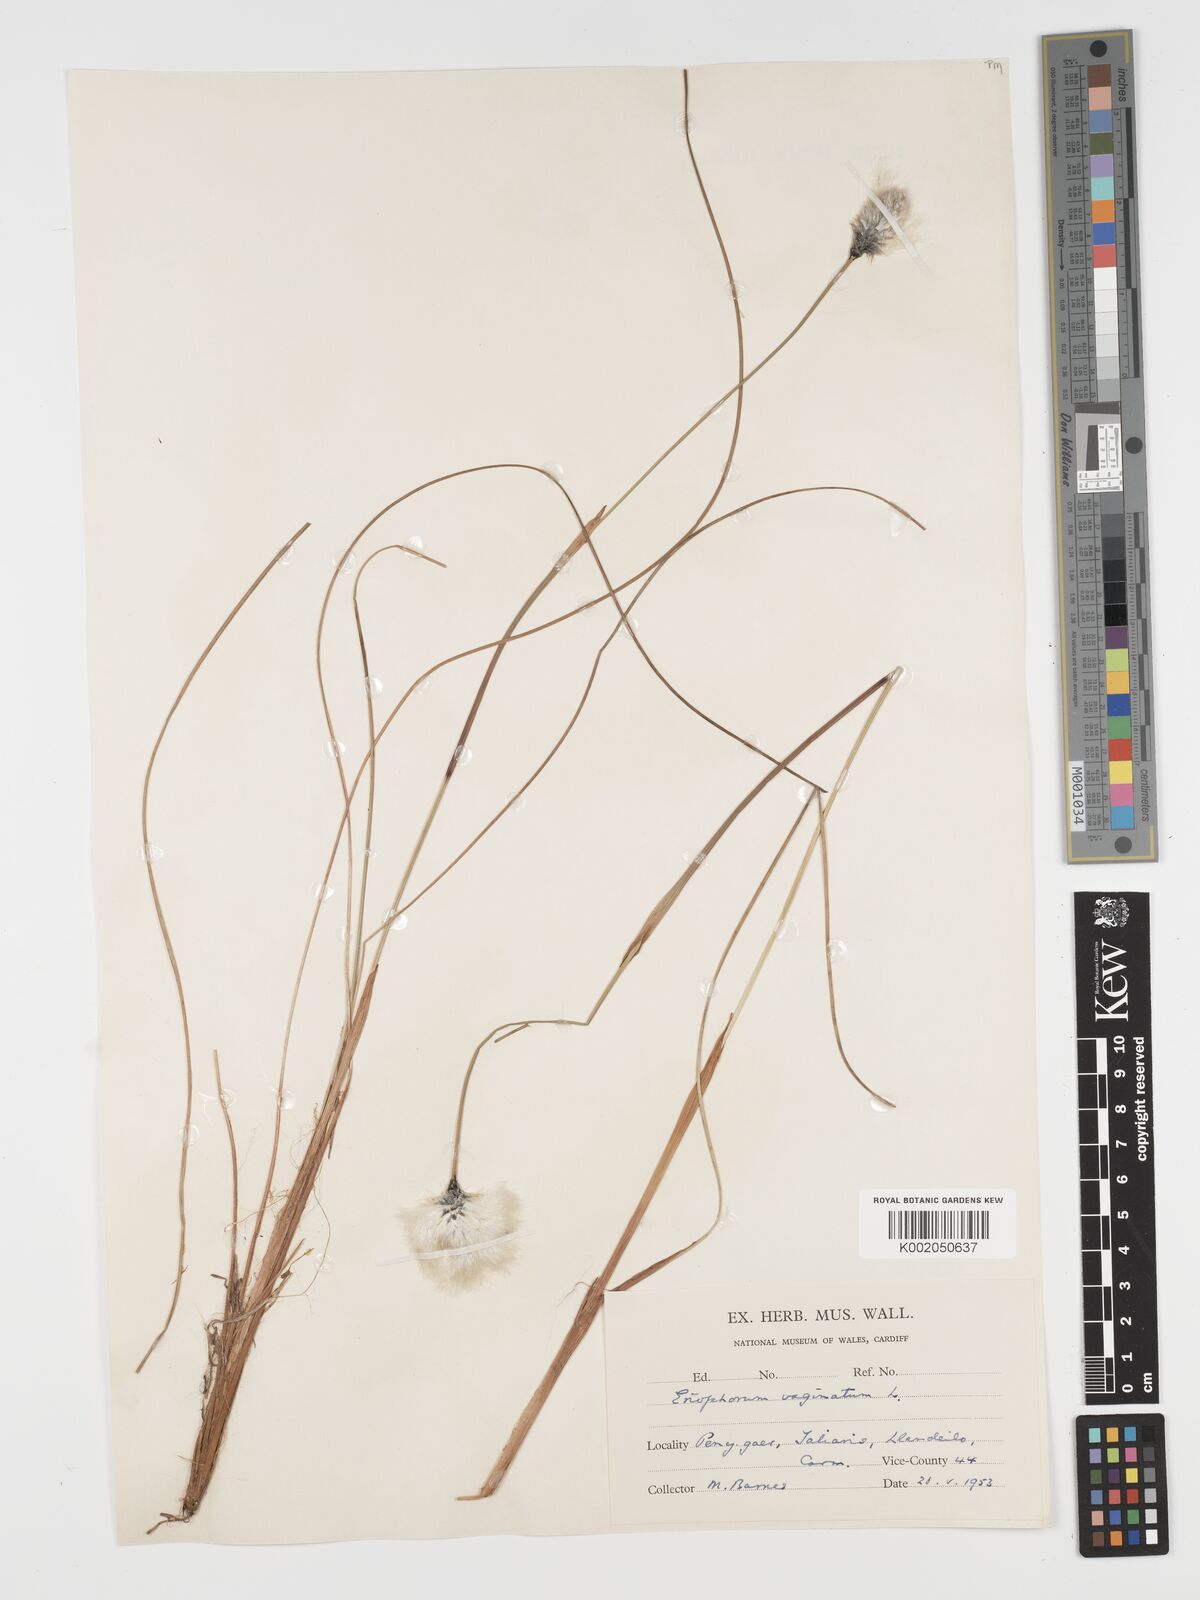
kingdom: Plantae
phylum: Tracheophyta
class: Liliopsida
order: Poales
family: Cyperaceae
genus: Eriophorum
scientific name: Eriophorum vaginatum
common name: Hare's-tail cottongrass
